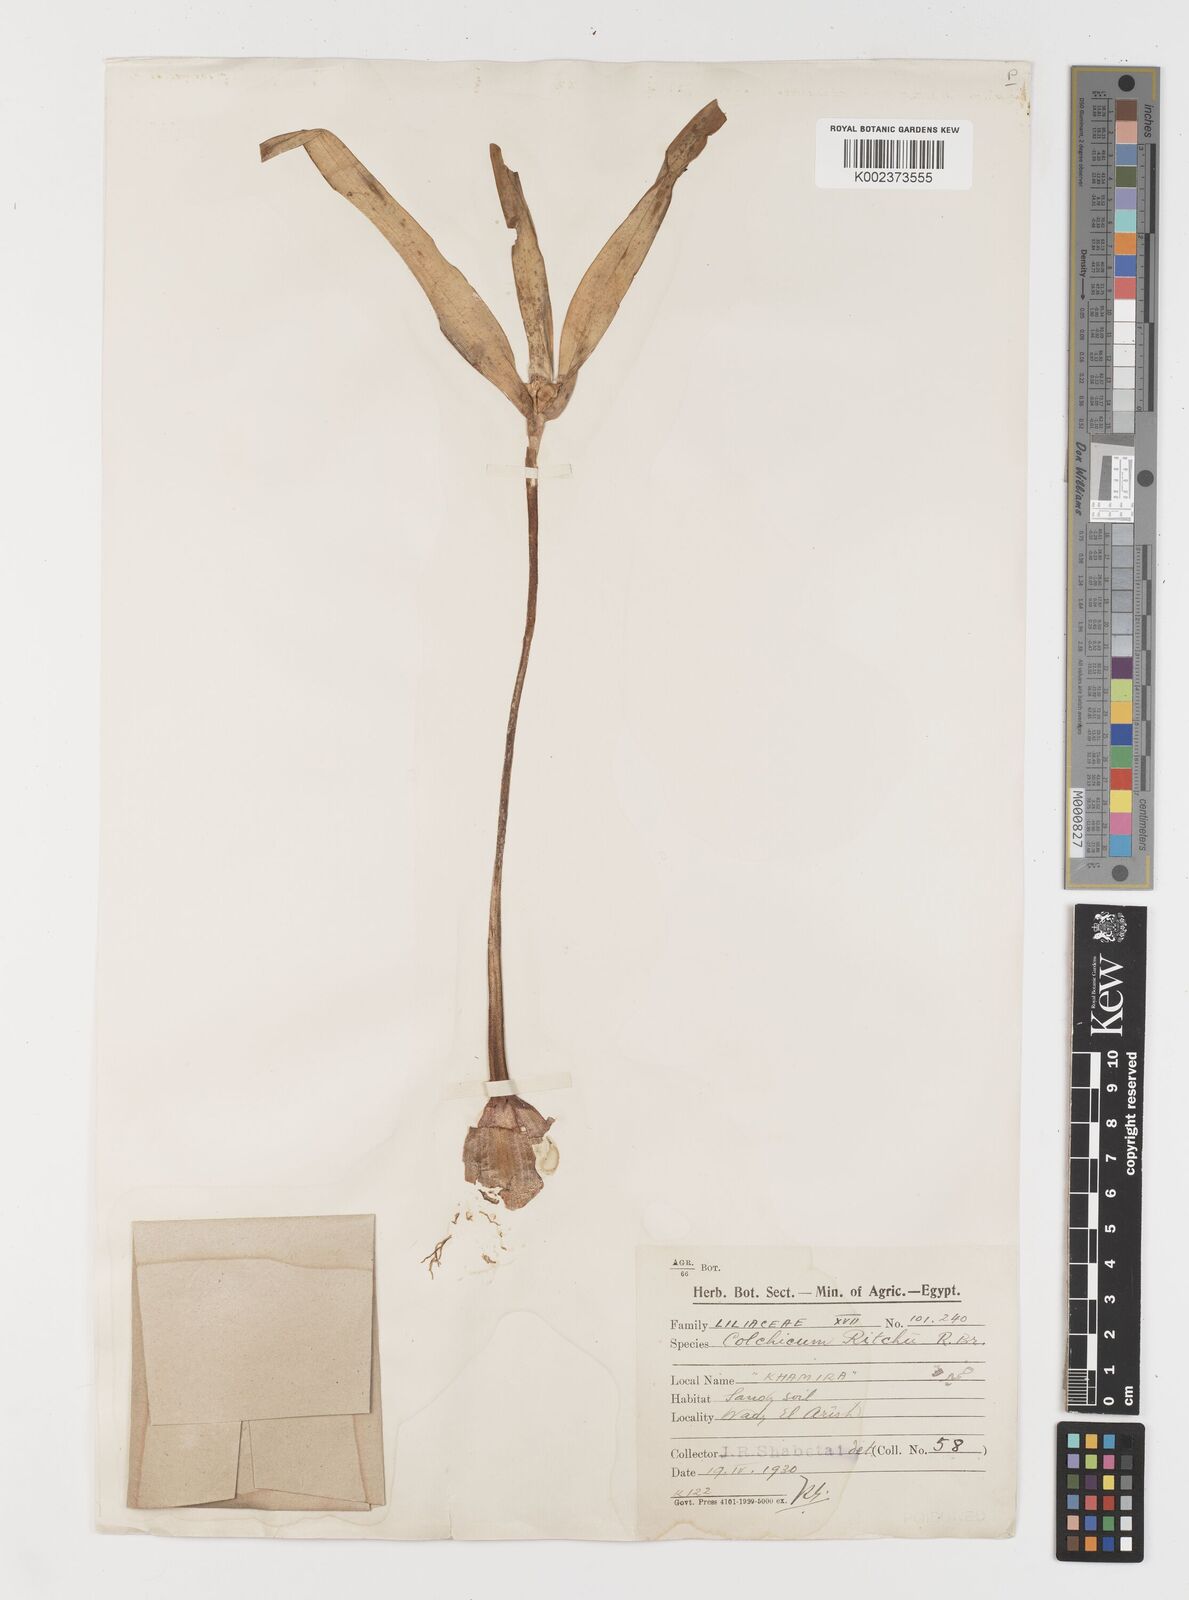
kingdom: Plantae
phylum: Tracheophyta
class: Liliopsida
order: Liliales
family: Colchicaceae
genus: Colchicum
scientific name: Colchicum ritchii
